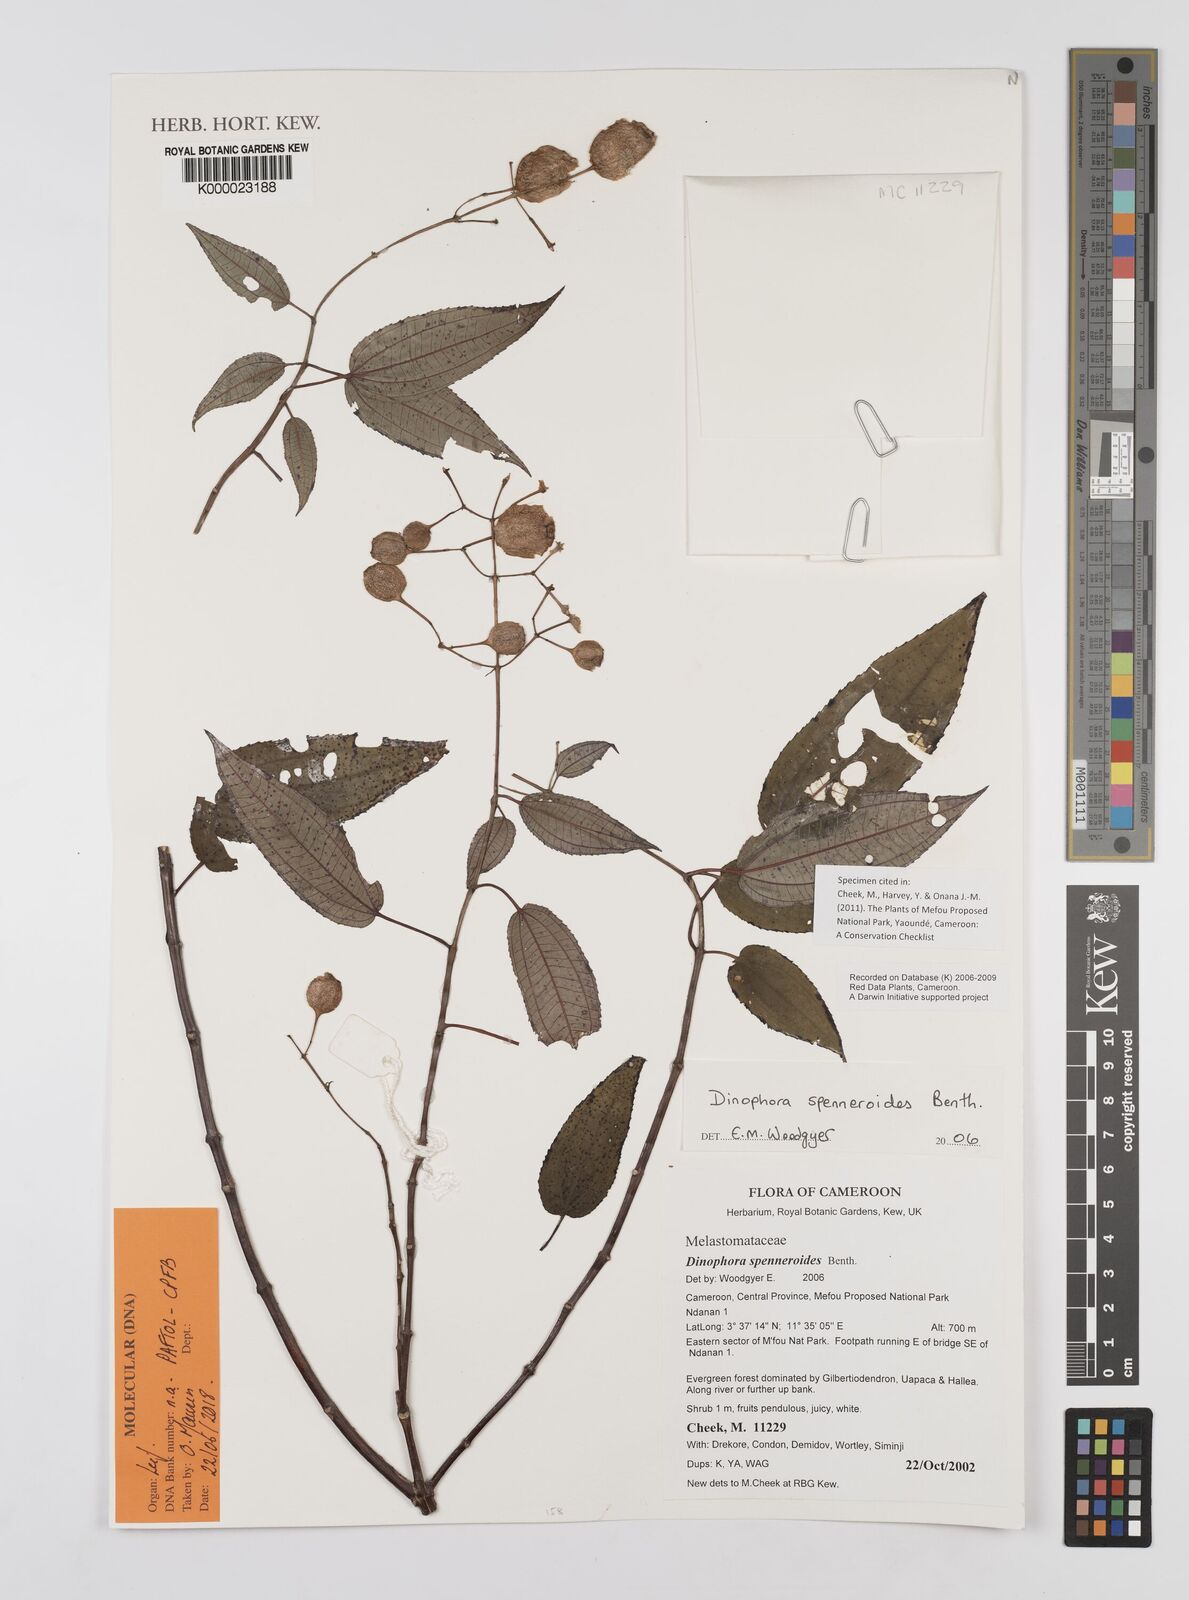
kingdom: Plantae
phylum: Tracheophyta
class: Magnoliopsida
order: Myrtales
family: Melastomataceae
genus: Dinophora
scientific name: Dinophora spenneroides
